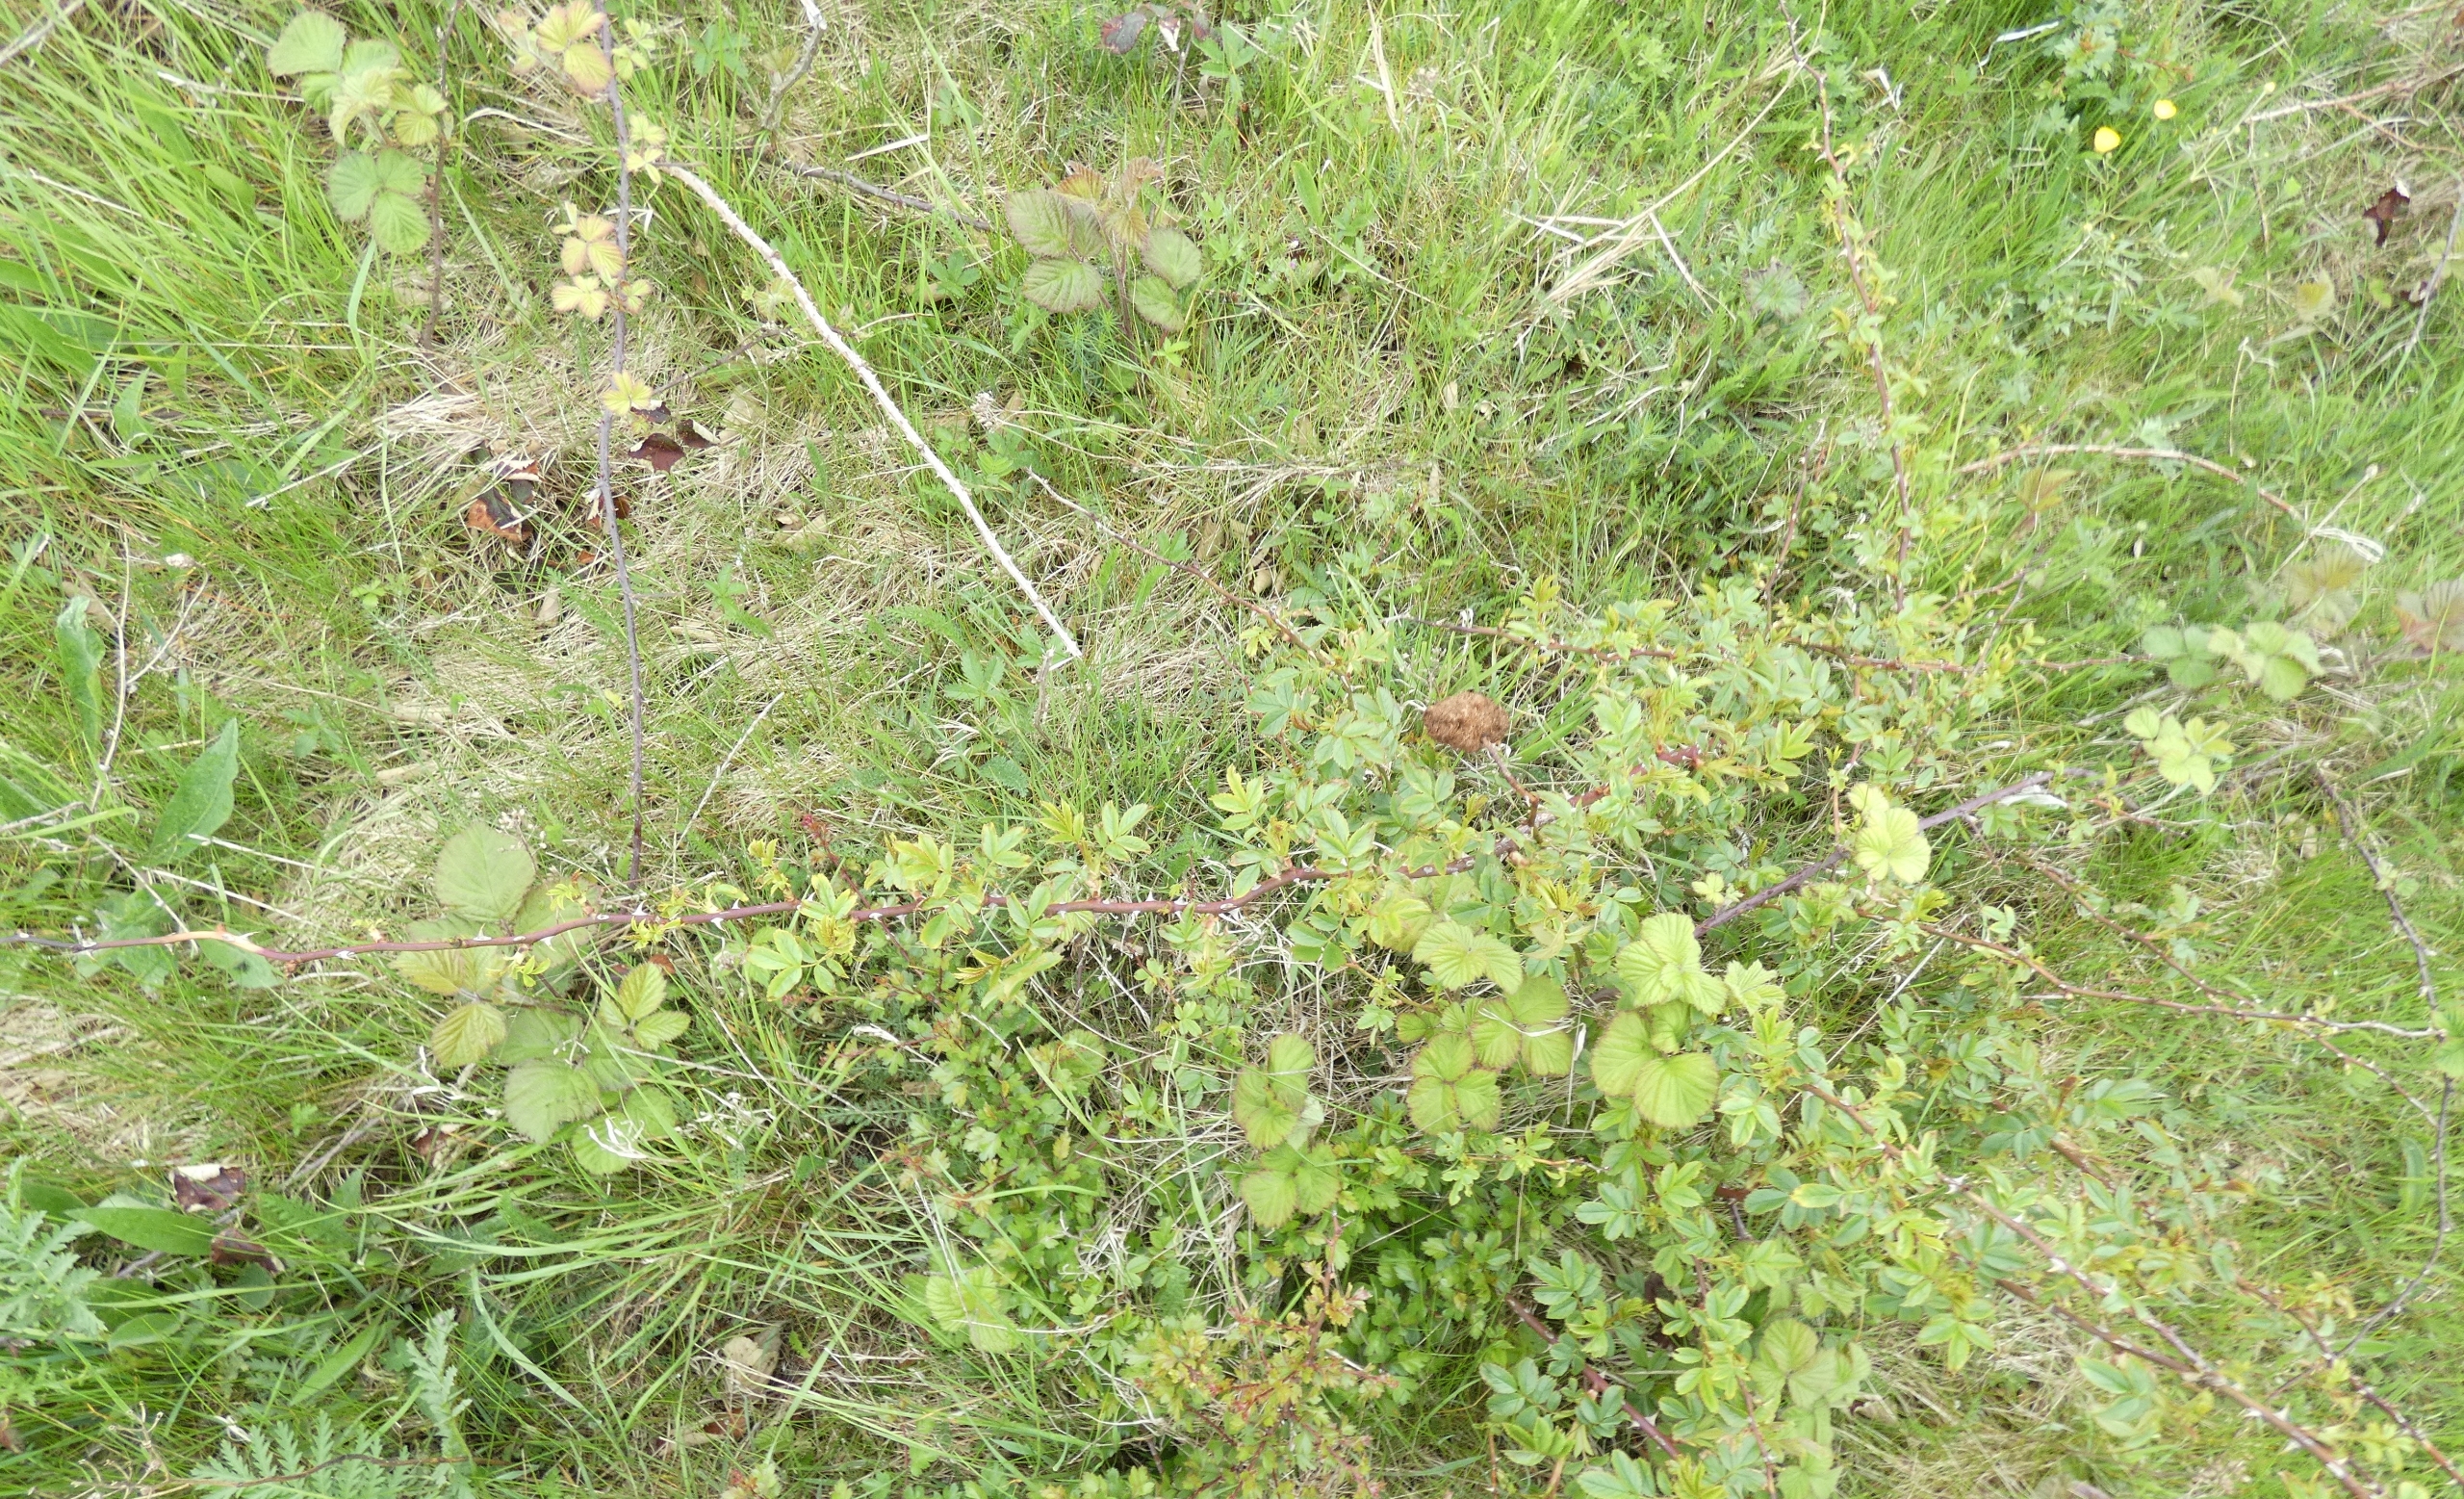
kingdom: Animalia
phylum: Arthropoda
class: Insecta
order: Hymenoptera
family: Cynipidae
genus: Diplolepis
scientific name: Diplolepis rosae
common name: Bedeguargalhveps
